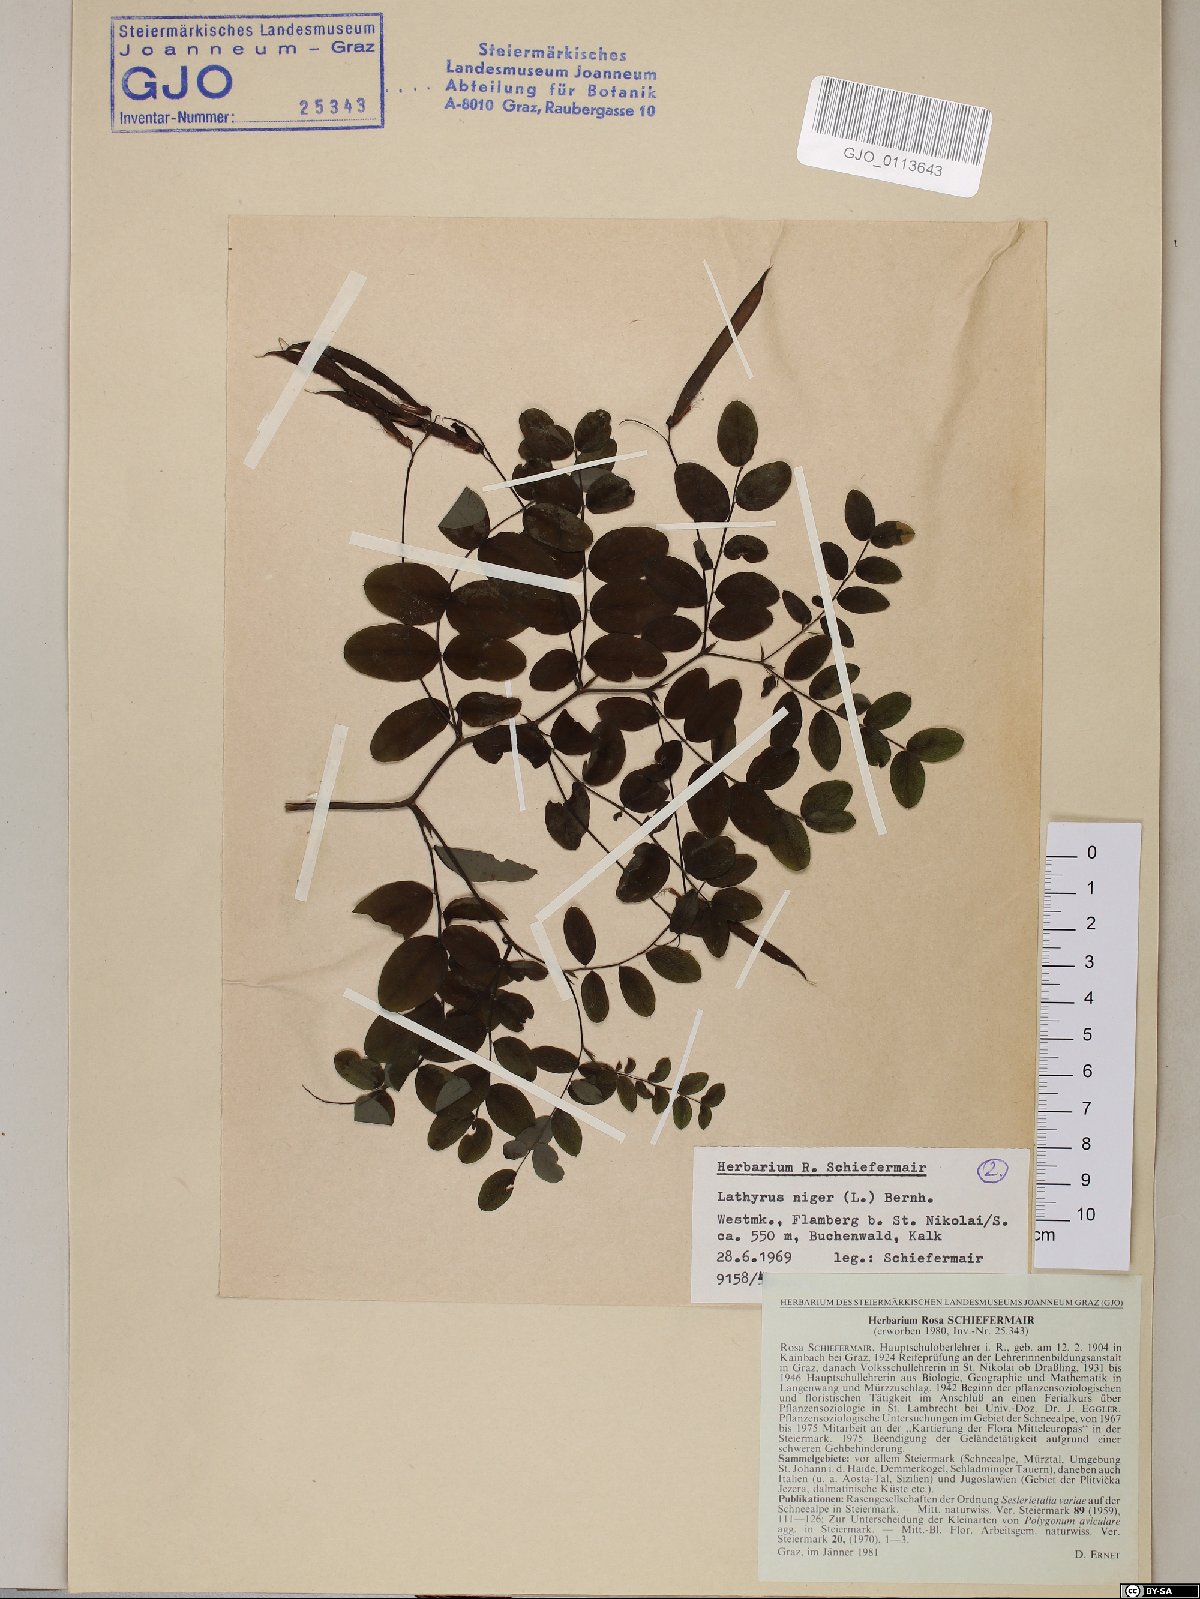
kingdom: Plantae
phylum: Tracheophyta
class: Magnoliopsida
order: Fabales
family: Fabaceae
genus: Lathyrus
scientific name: Lathyrus niger
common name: Black pea
